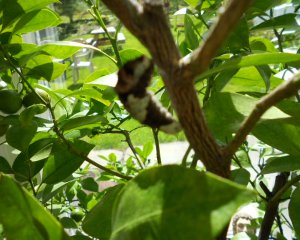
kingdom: Animalia
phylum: Arthropoda
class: Insecta
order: Lepidoptera
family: Papilionidae
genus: Papilio
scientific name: Papilio cresphontes
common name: Eastern Giant Swallowtail
